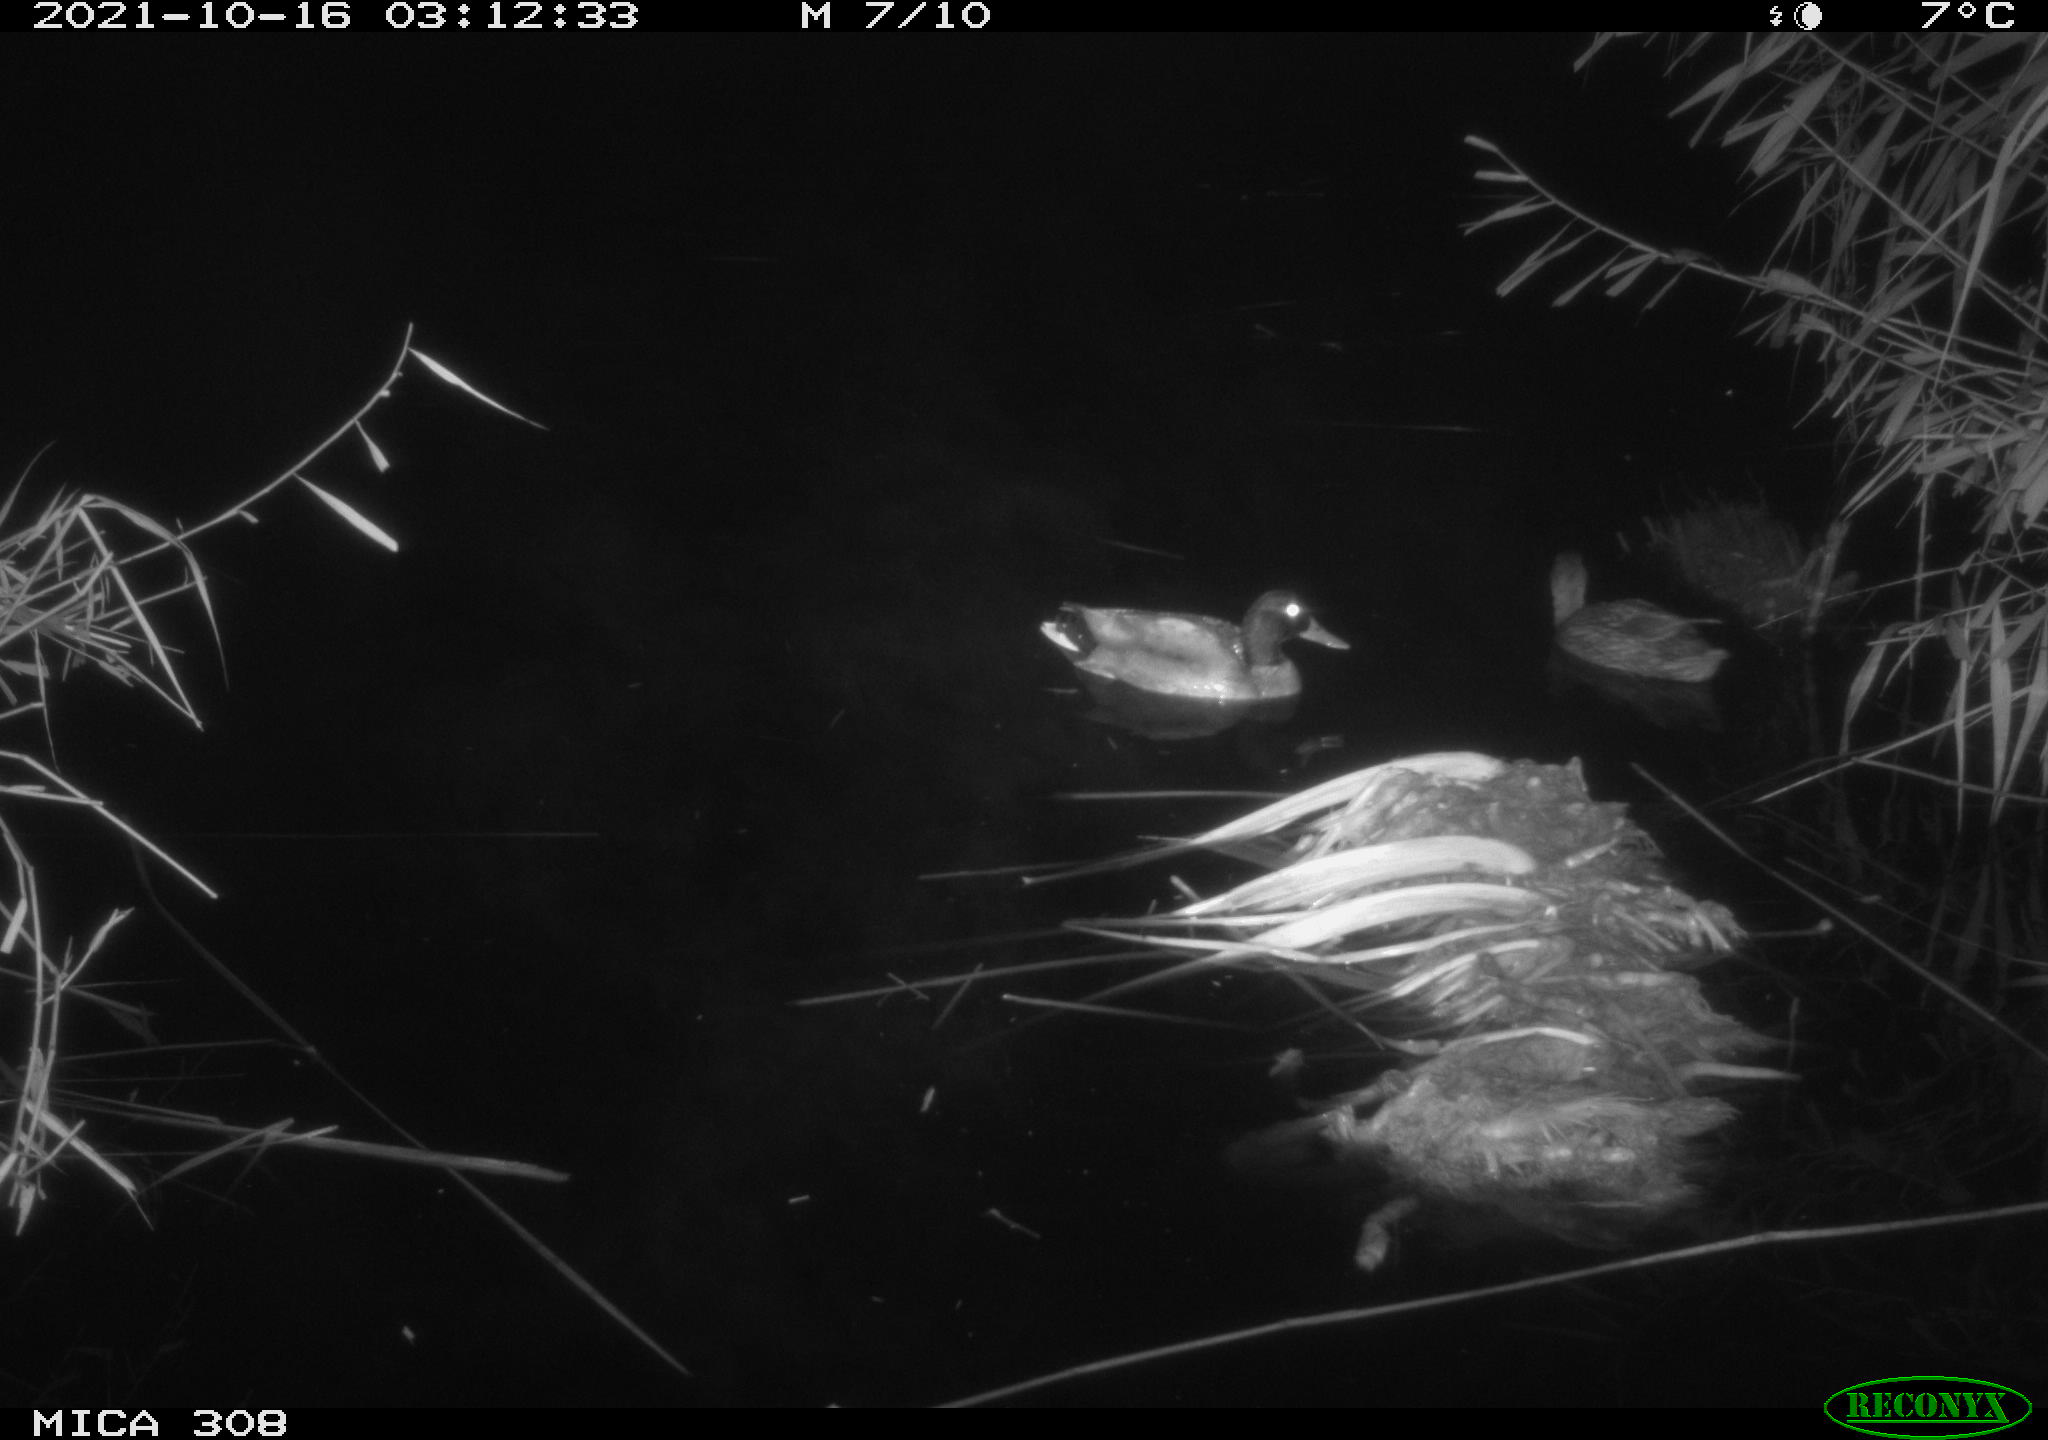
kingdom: Animalia
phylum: Chordata
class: Aves
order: Anseriformes
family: Anatidae
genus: Anas
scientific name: Anas platyrhynchos
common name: Mallard
